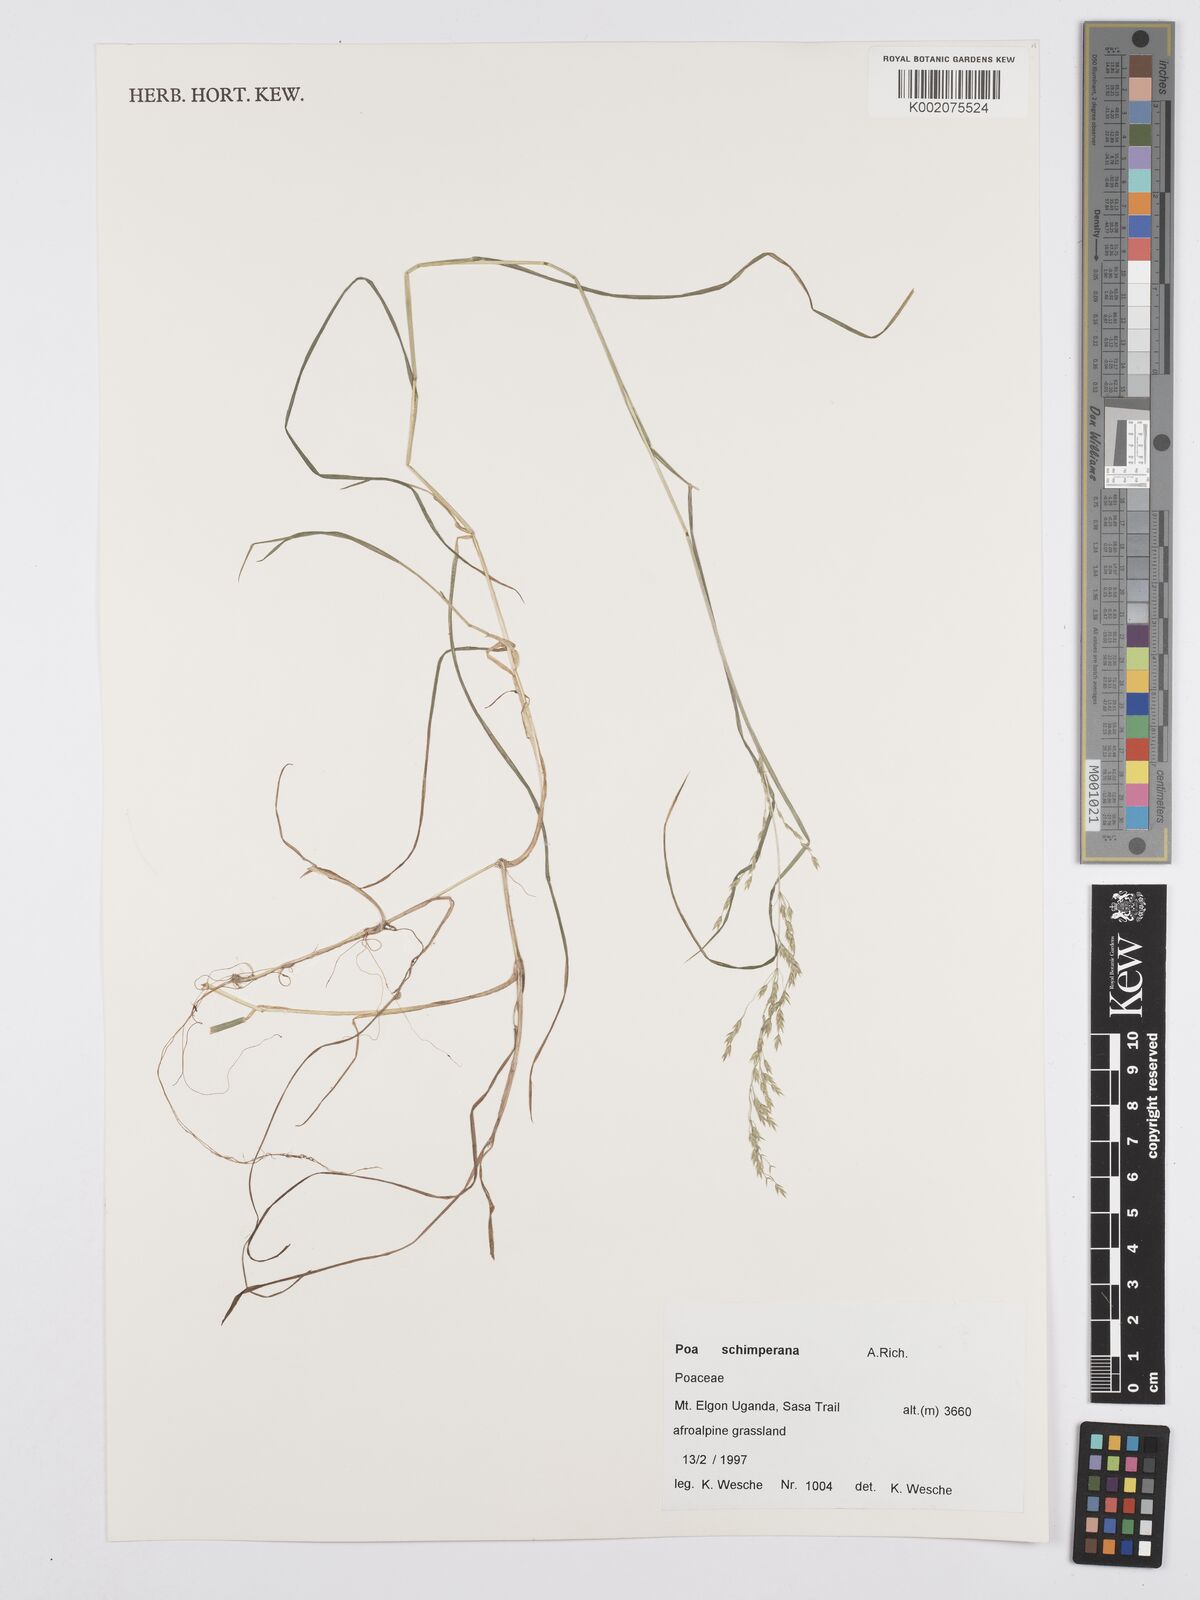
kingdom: Plantae
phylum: Tracheophyta
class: Liliopsida
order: Poales
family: Poaceae
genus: Poa
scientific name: Poa schimperiana
